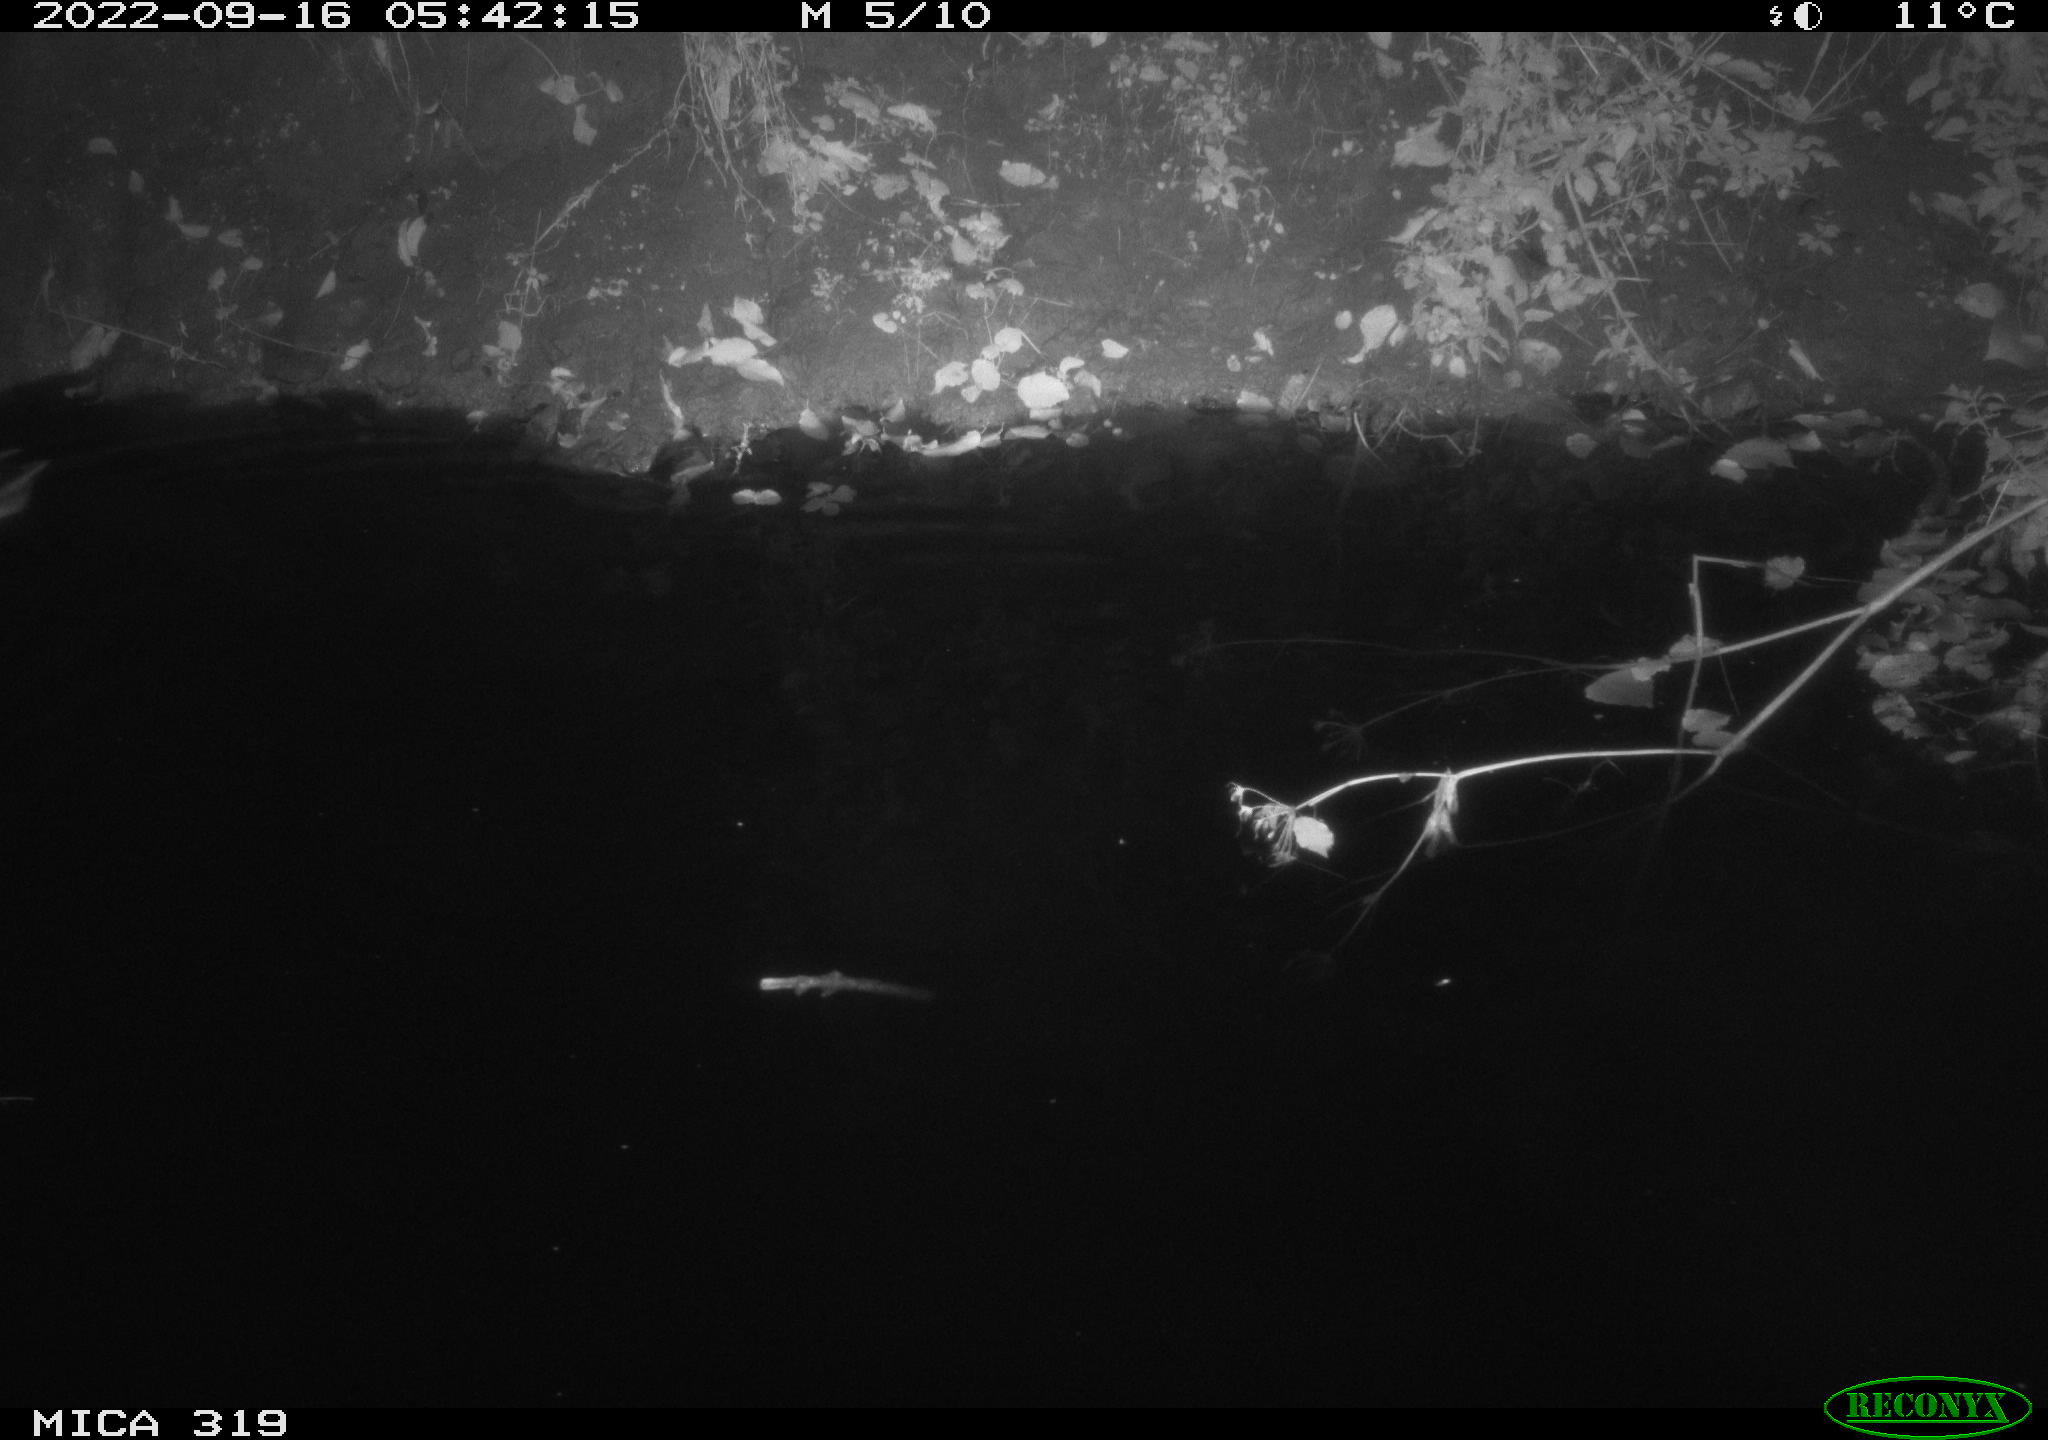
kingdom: Animalia
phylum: Chordata
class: Aves
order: Anseriformes
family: Anatidae
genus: Anas
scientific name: Anas
